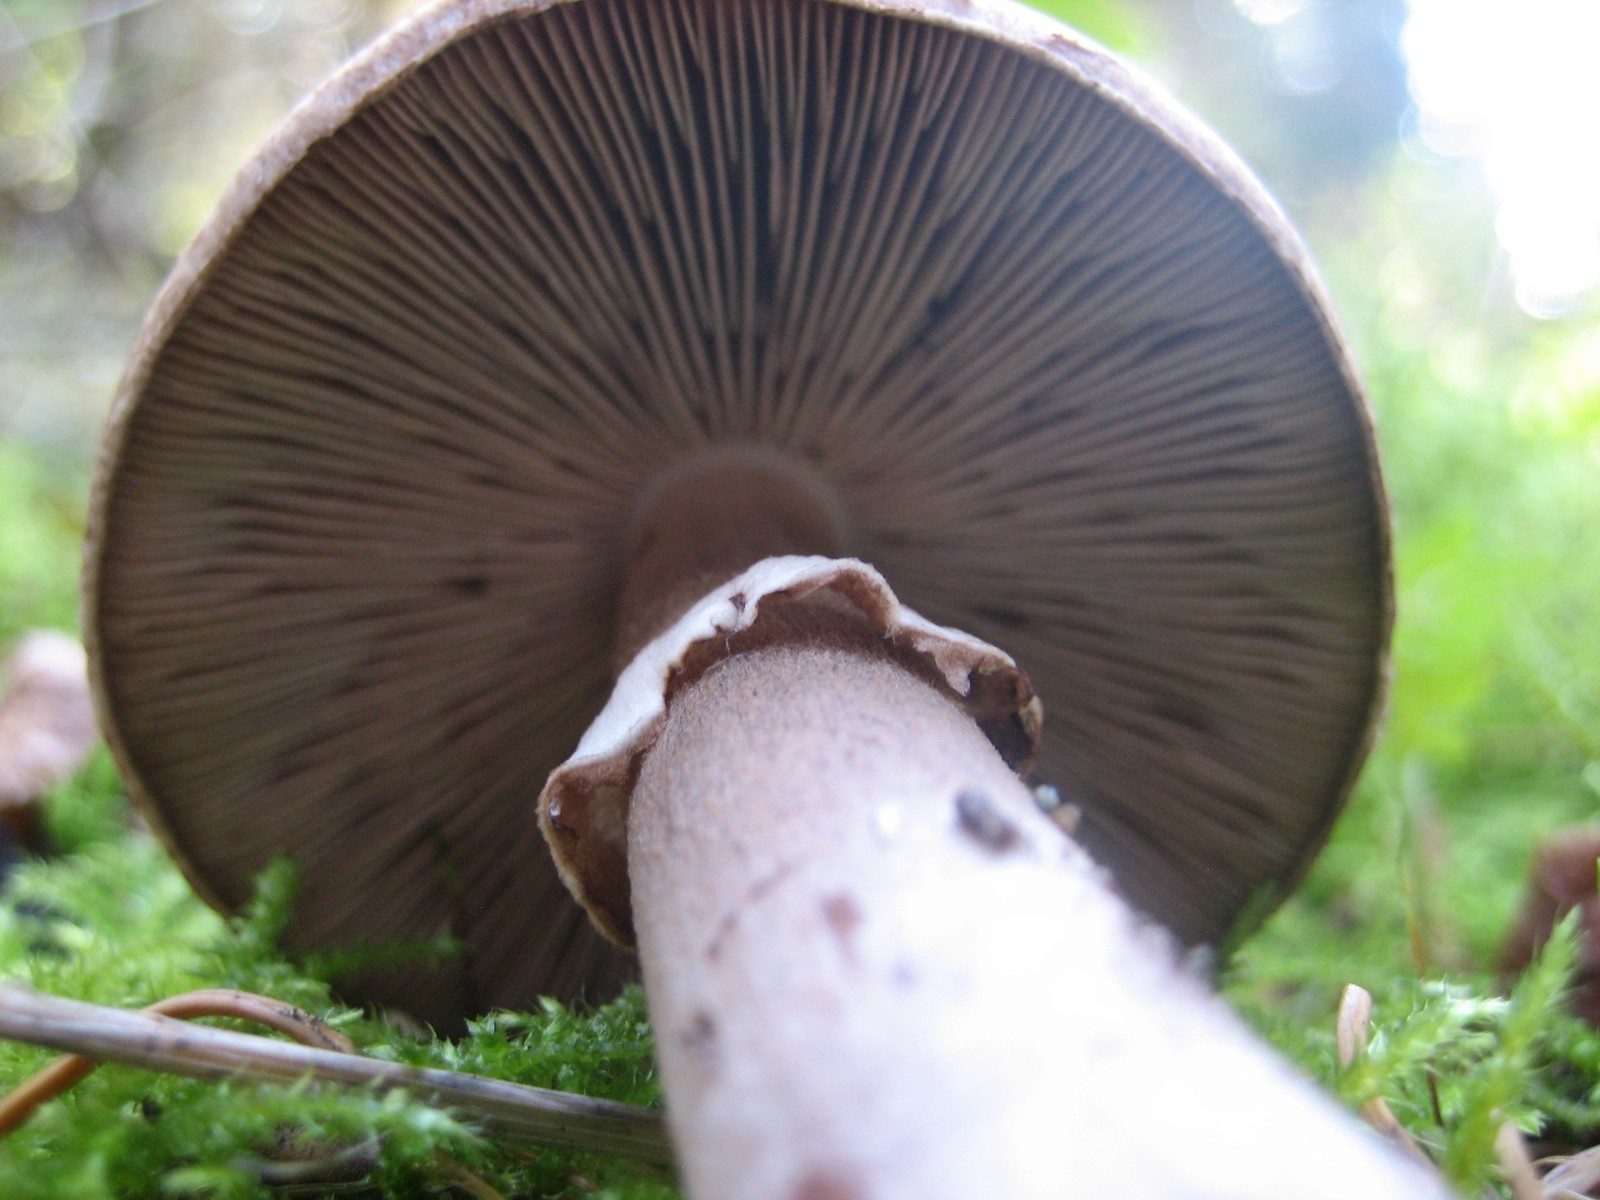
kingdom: Fungi
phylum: Basidiomycota
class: Agaricomycetes
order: Agaricales
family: Agaricaceae
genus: Agaricus
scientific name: Agaricus
